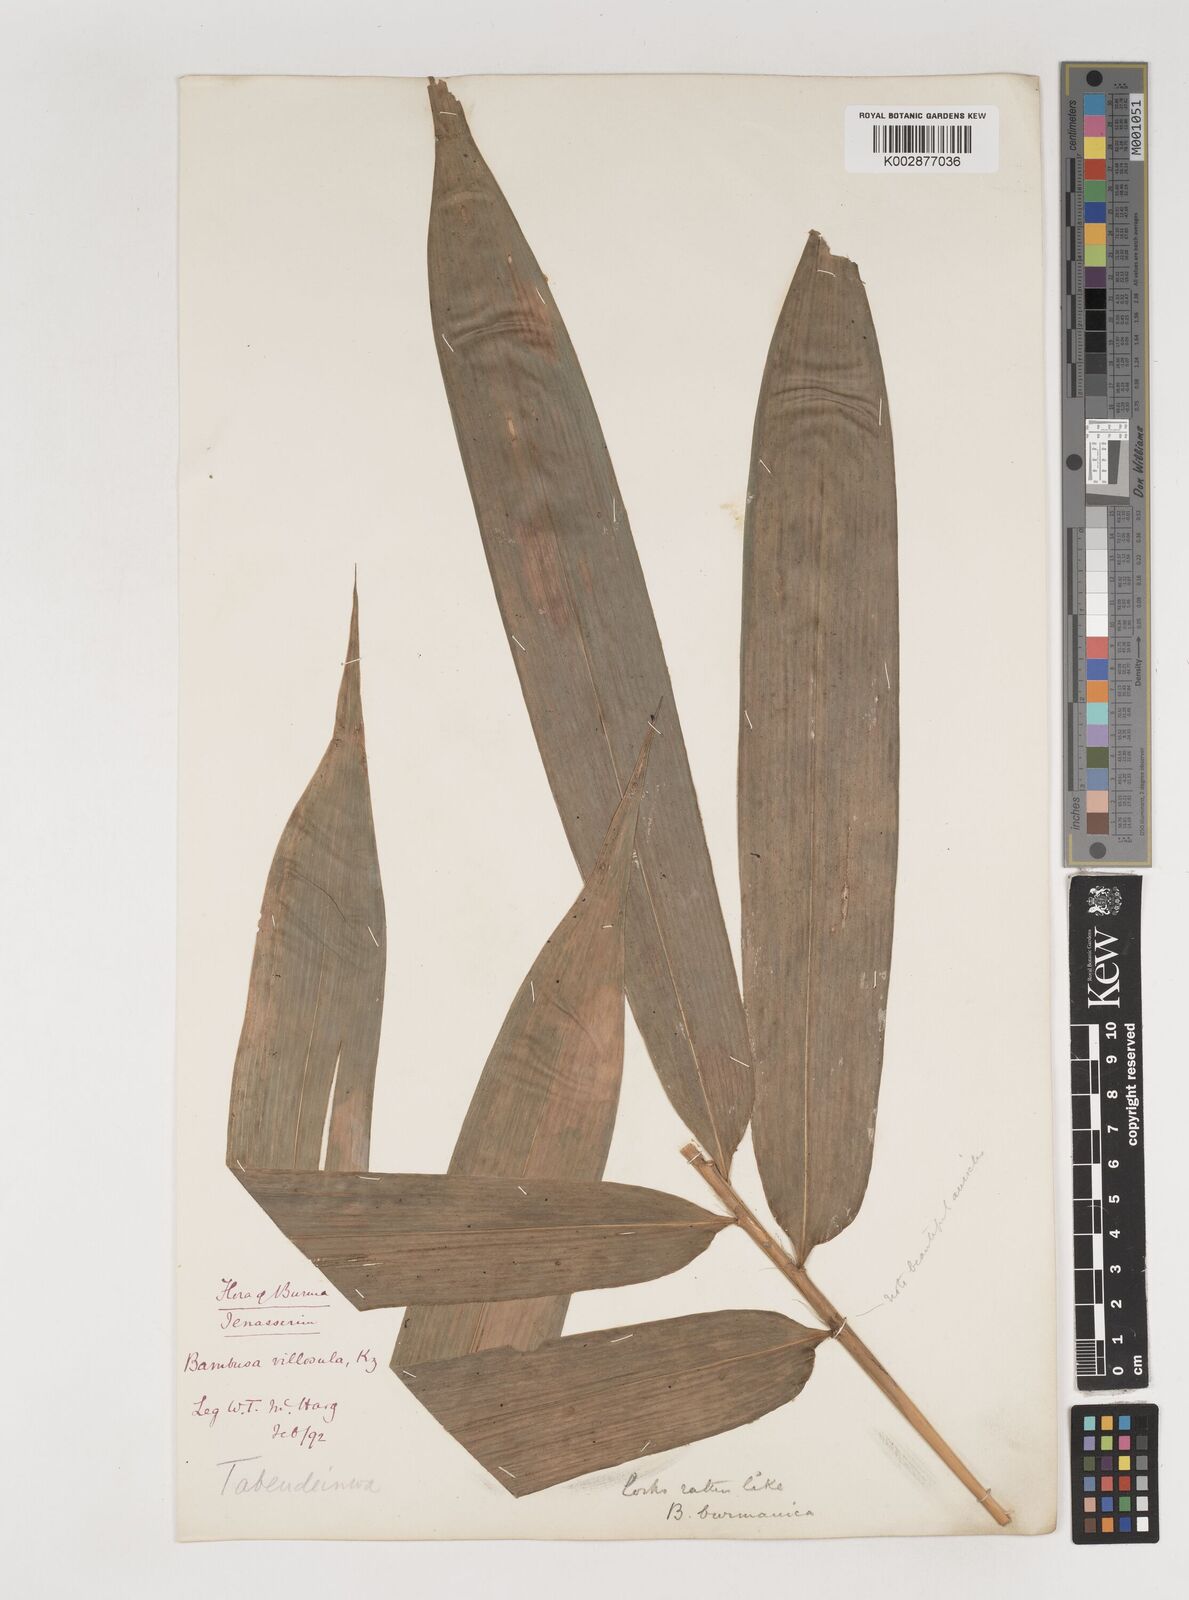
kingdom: Plantae
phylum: Tracheophyta
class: Liliopsida
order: Poales
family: Poaceae
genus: Bambusa
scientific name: Bambusa villosula
